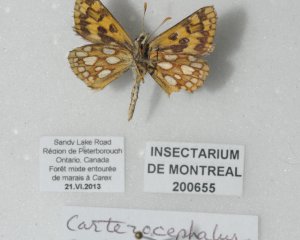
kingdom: Animalia
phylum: Arthropoda
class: Insecta
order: Lepidoptera
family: Hesperiidae
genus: Carterocephalus
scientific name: Carterocephalus palaemon
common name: Chequered Skipper
